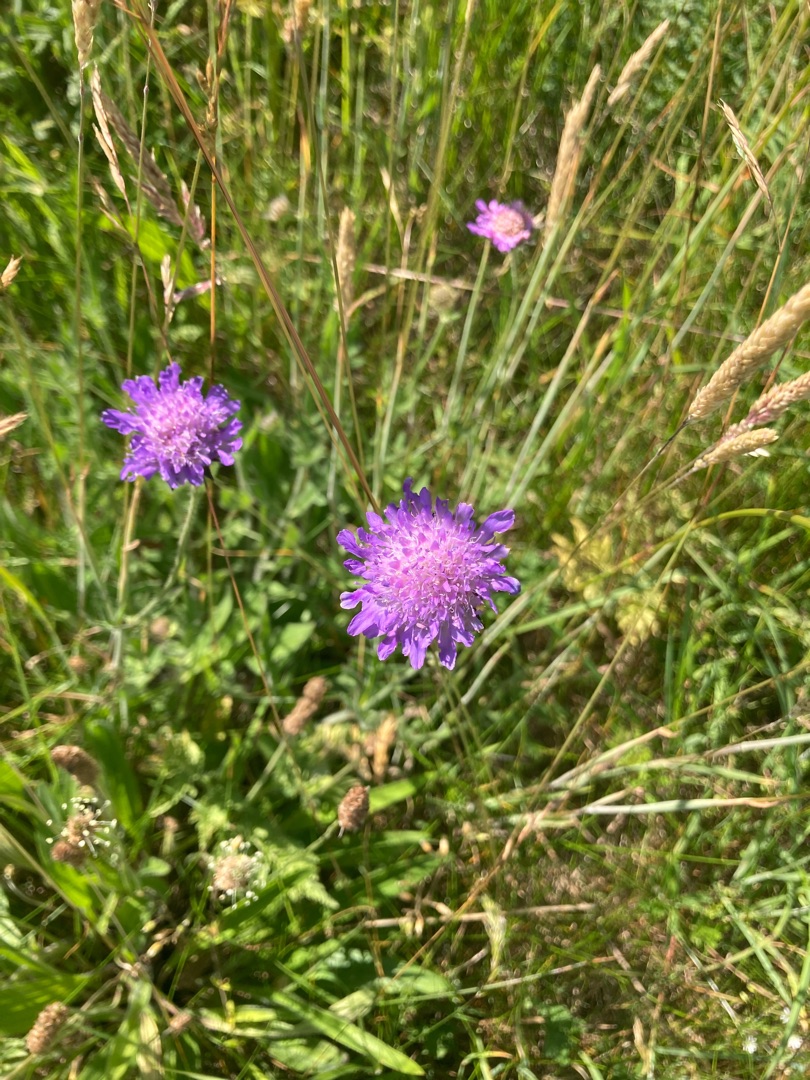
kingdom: Plantae
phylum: Tracheophyta
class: Magnoliopsida
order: Dipsacales
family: Caprifoliaceae
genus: Knautia
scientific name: Knautia arvensis
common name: Blåhat
